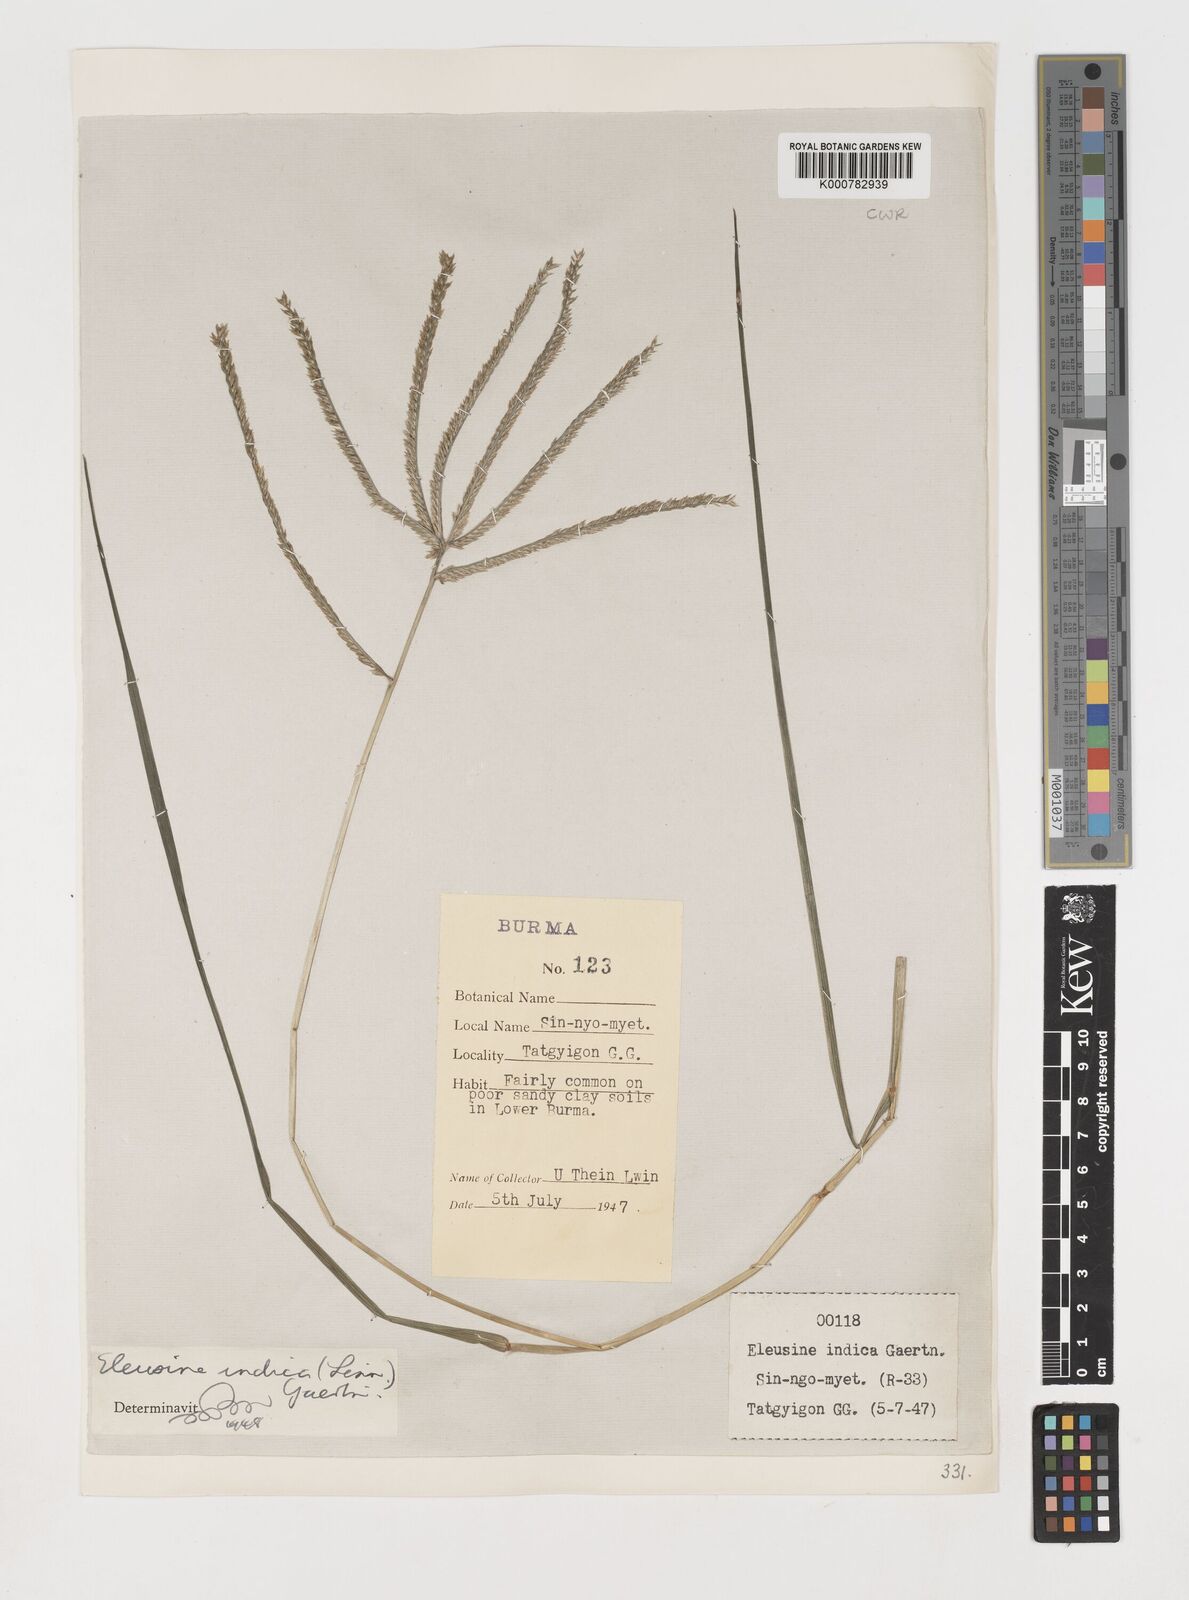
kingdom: Plantae
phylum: Tracheophyta
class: Liliopsida
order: Poales
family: Poaceae
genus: Eleusine
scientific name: Eleusine indica
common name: Yard-grass
